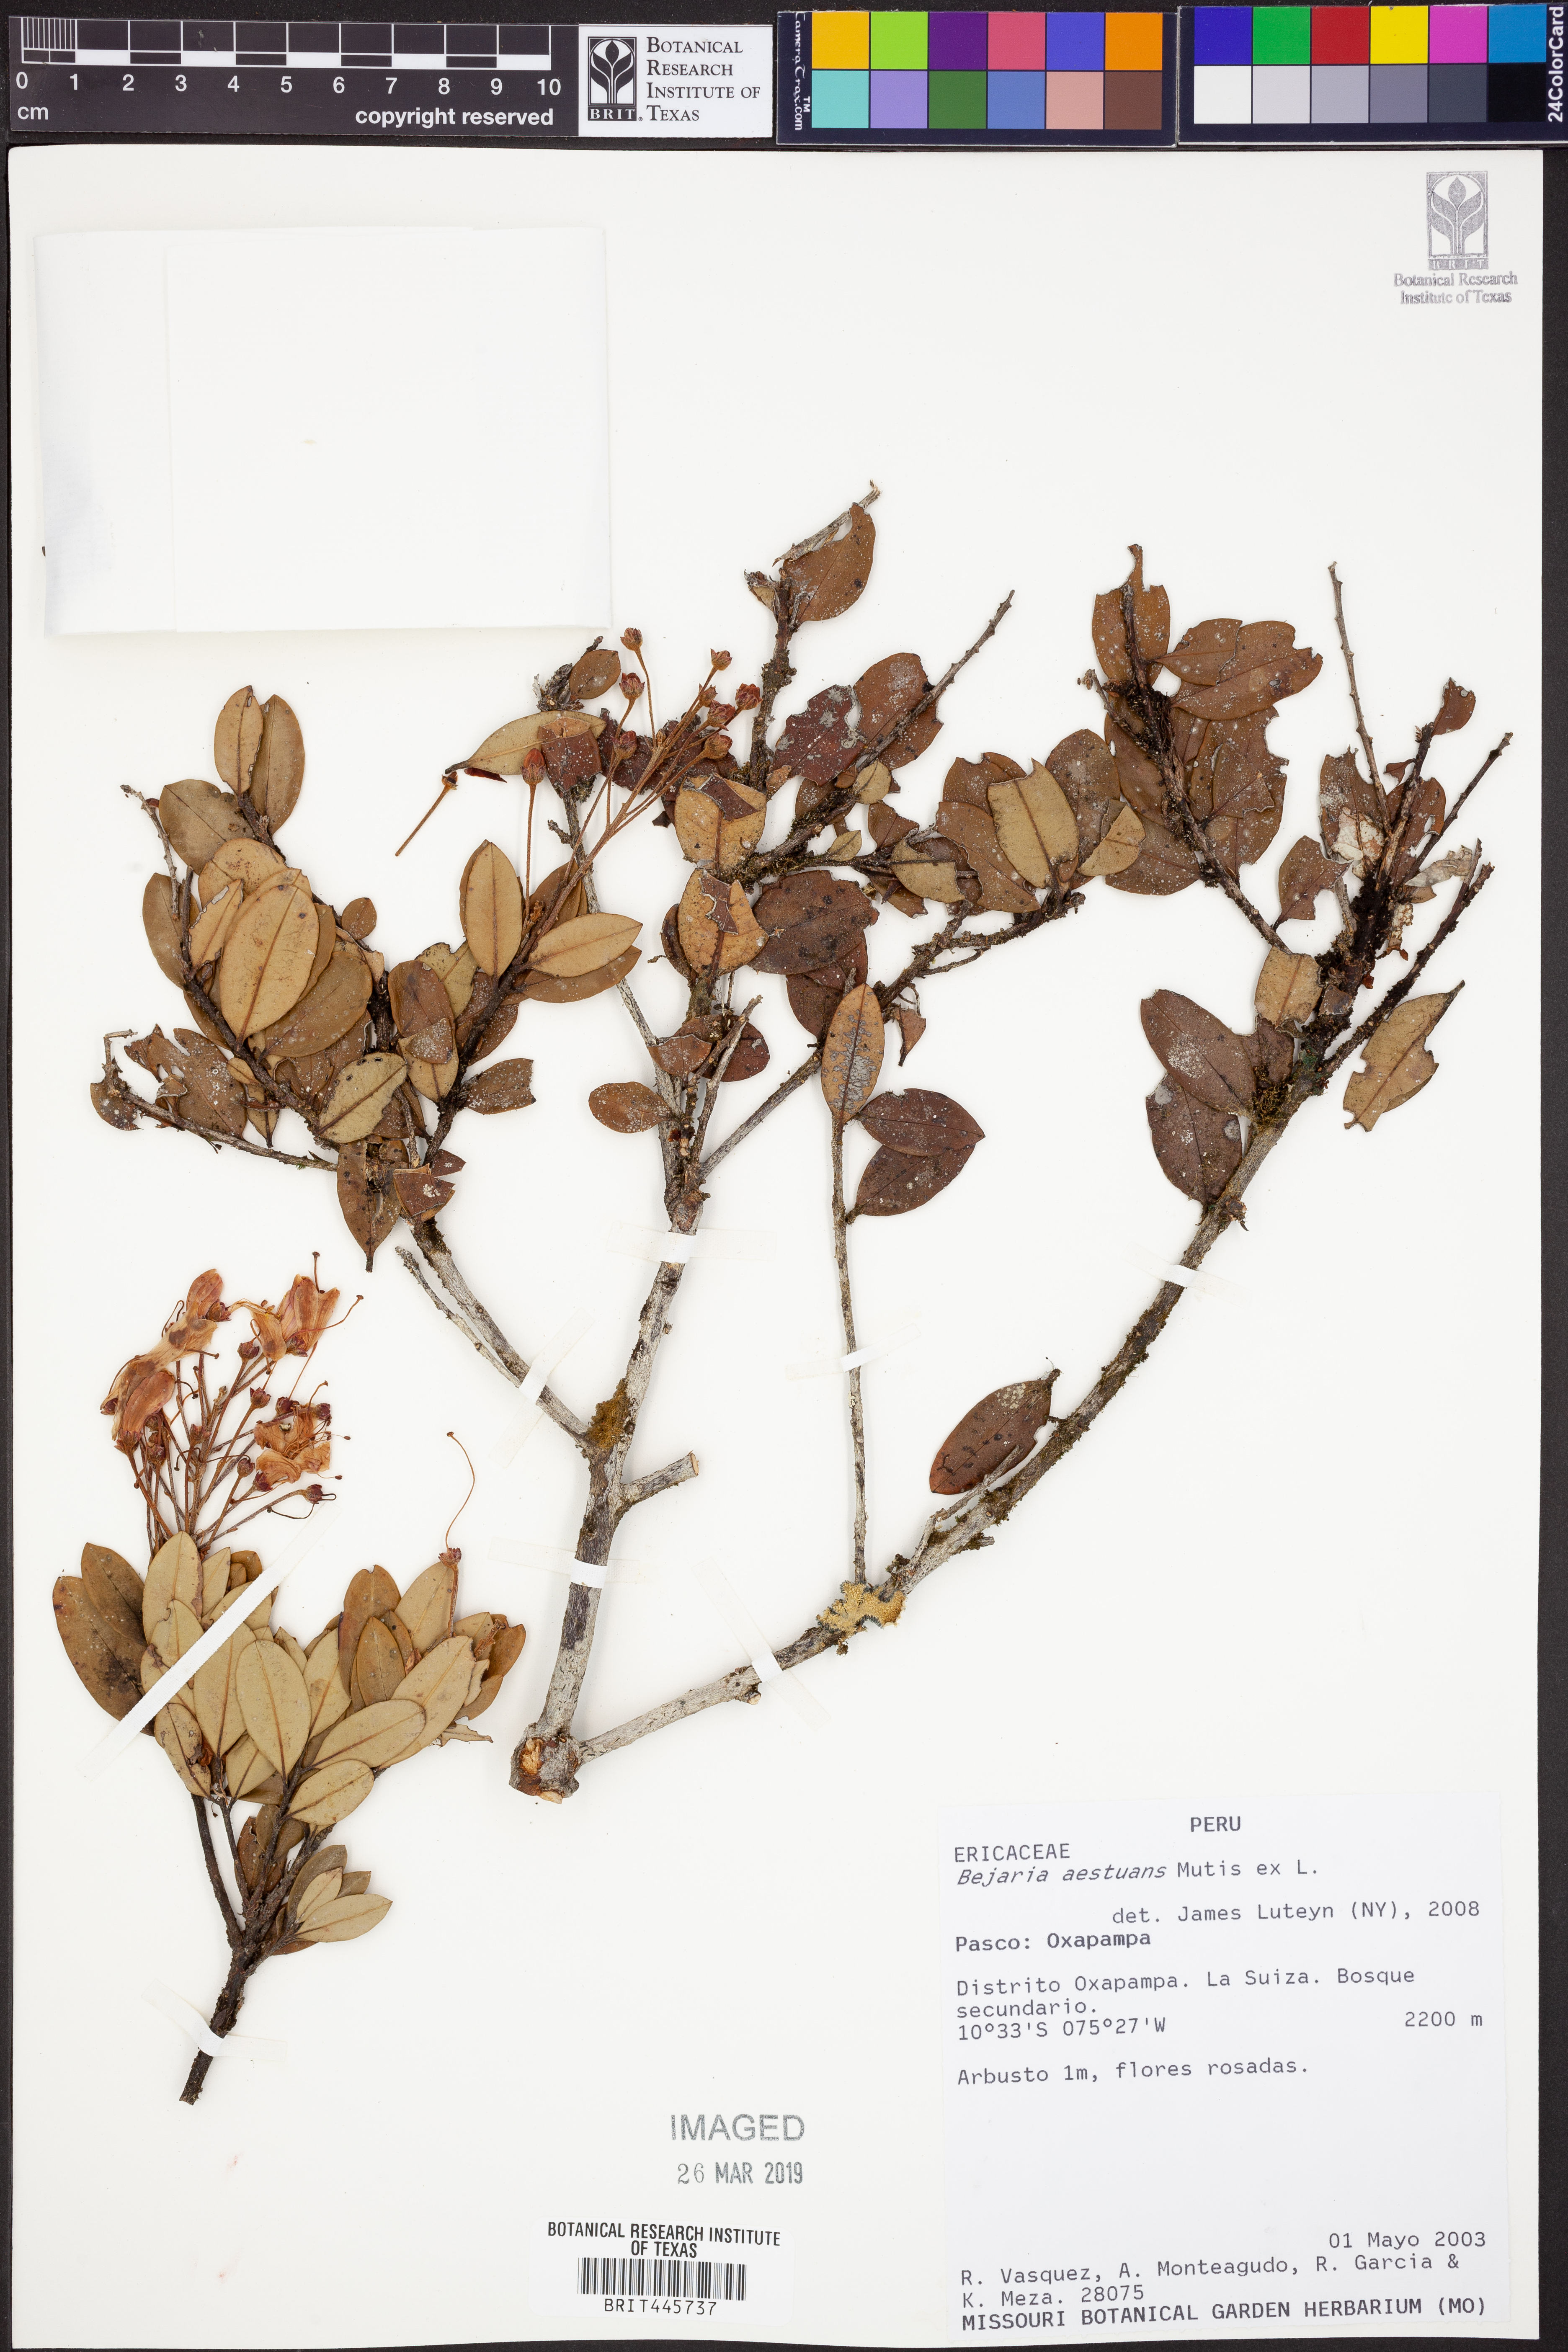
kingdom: Plantae
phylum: Tracheophyta
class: Magnoliopsida
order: Ericales
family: Ericaceae
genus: Bejaria
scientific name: Bejaria aestuans
